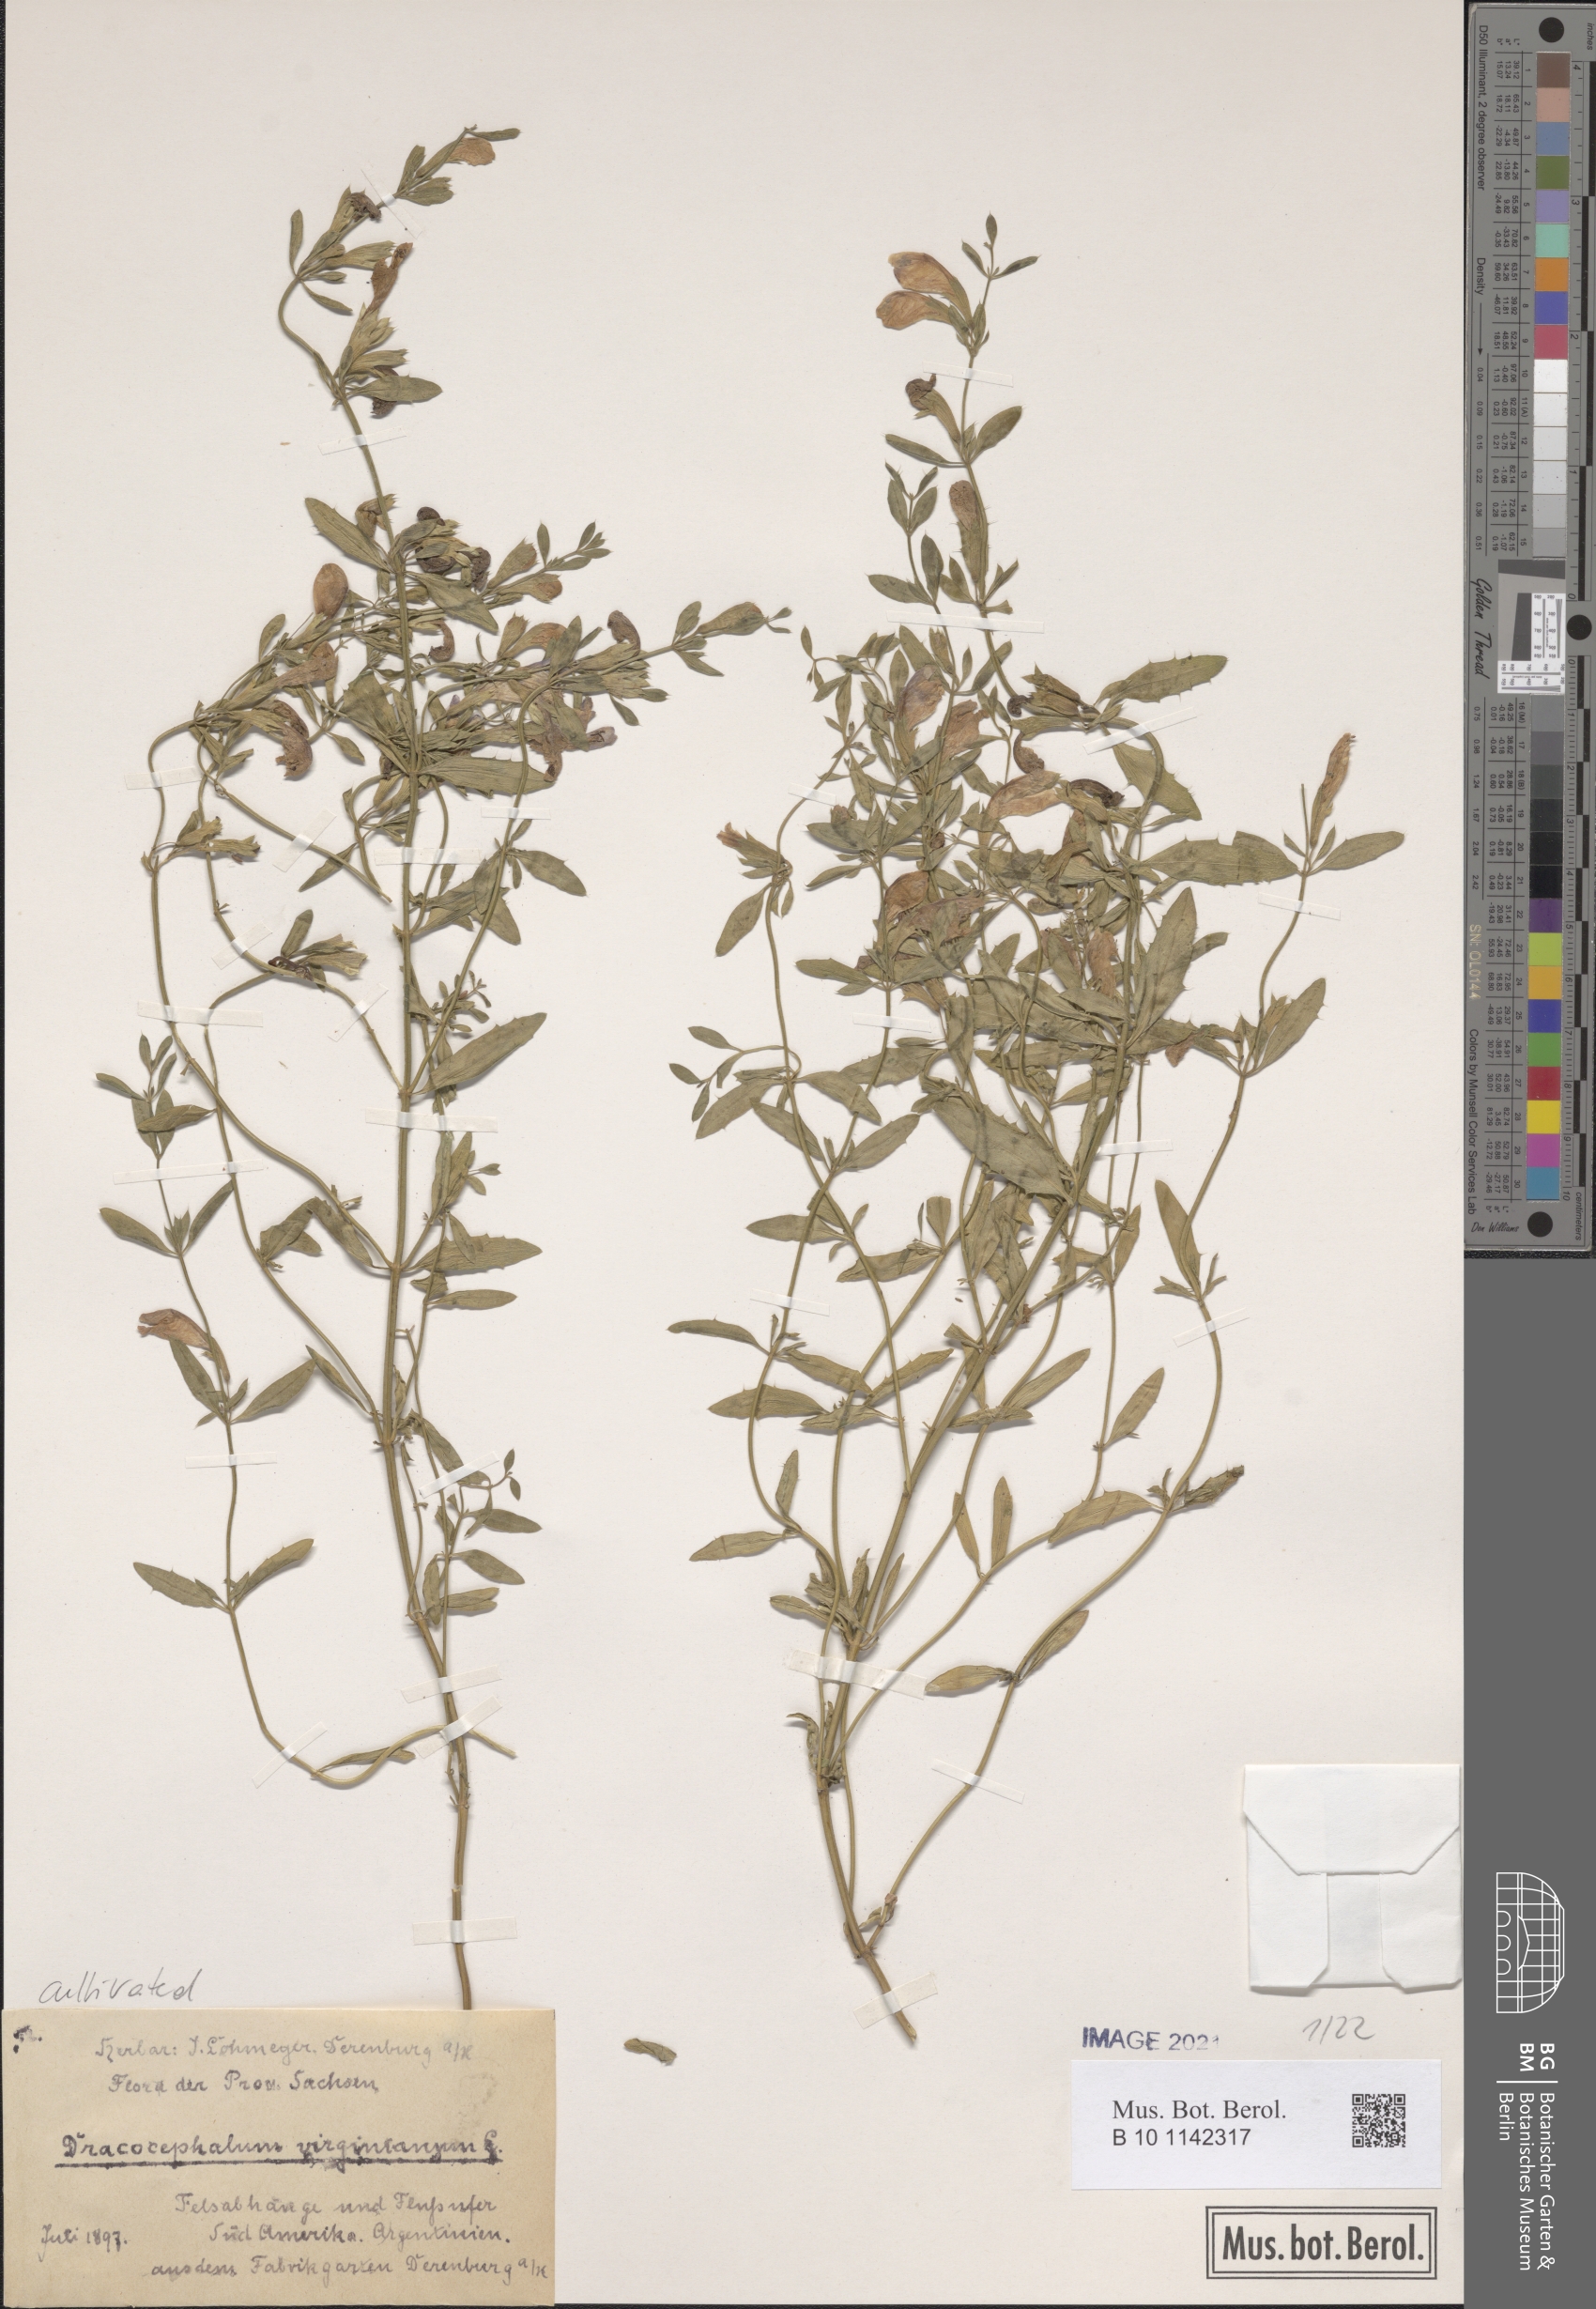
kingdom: Plantae
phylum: Tracheophyta
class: Magnoliopsida
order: Lamiales
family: Lamiaceae
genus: Physostegia
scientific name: Physostegia virginiana
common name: Obedient-plant
